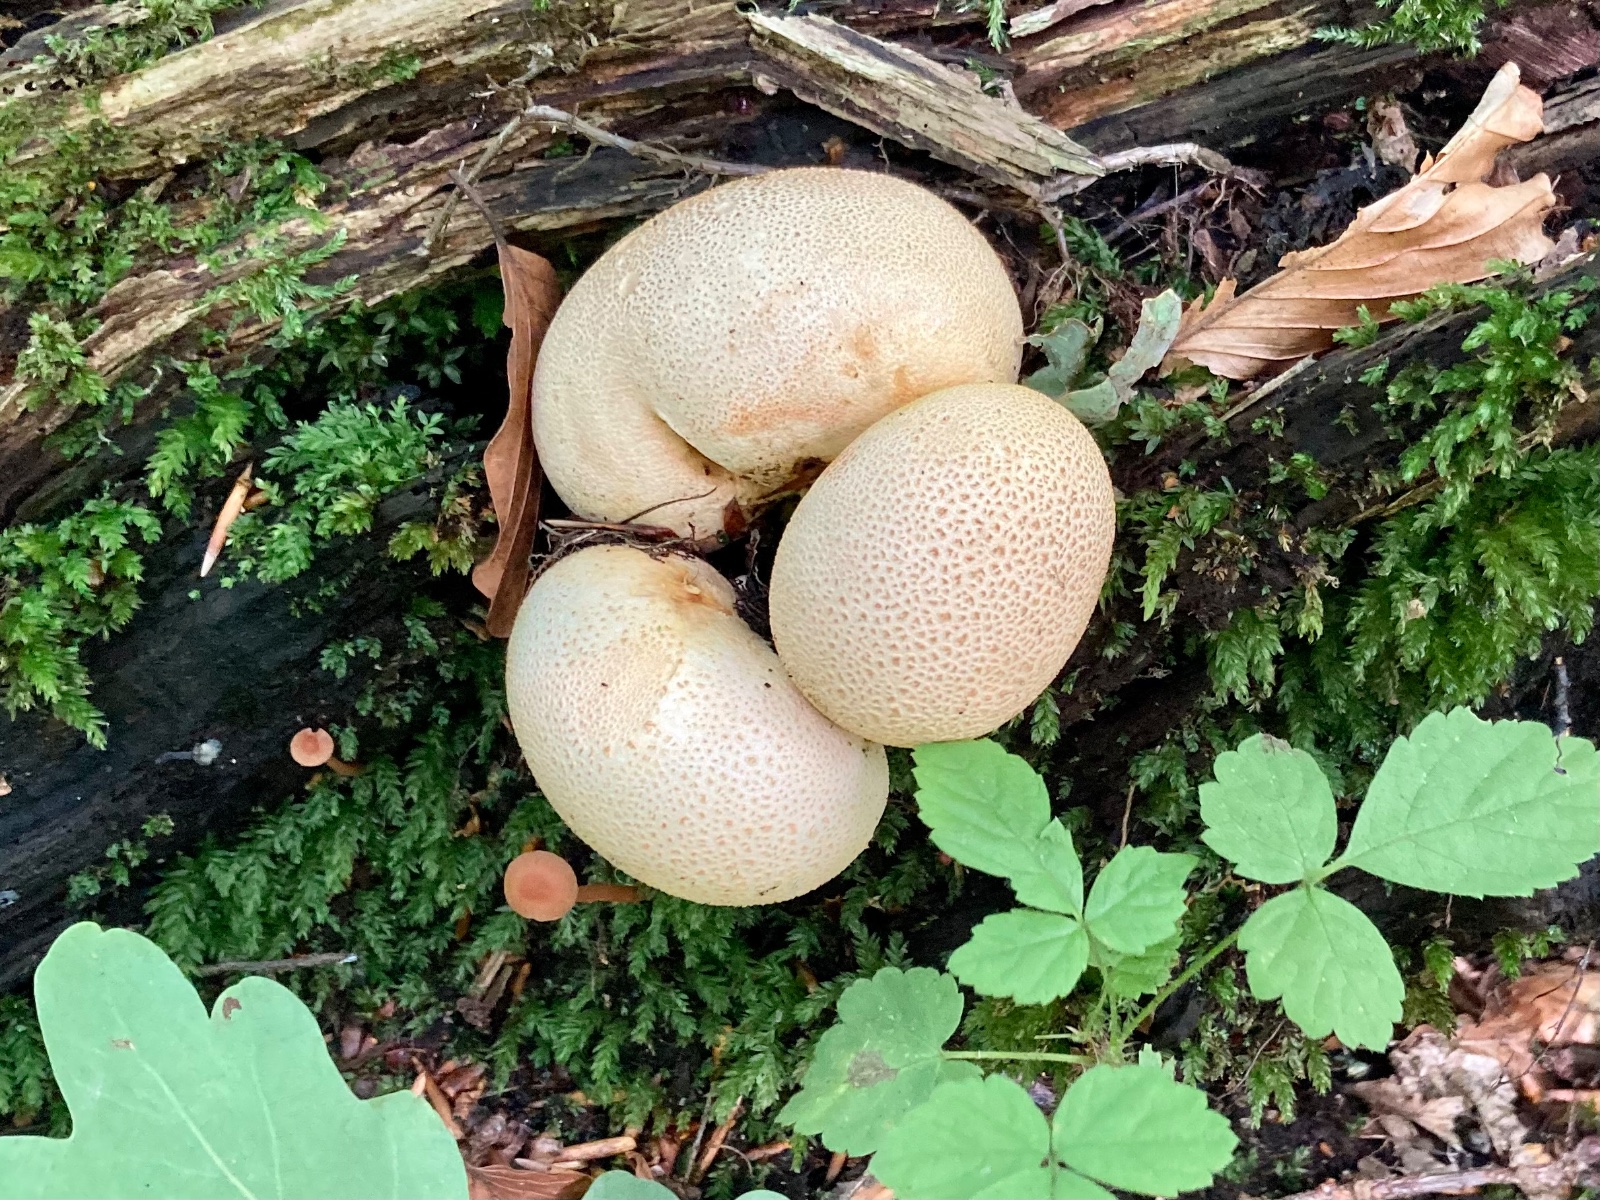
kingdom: Fungi
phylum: Basidiomycota
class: Agaricomycetes
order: Boletales
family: Sclerodermataceae
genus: Scleroderma
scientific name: Scleroderma citrinum
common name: almindelig bruskbold
